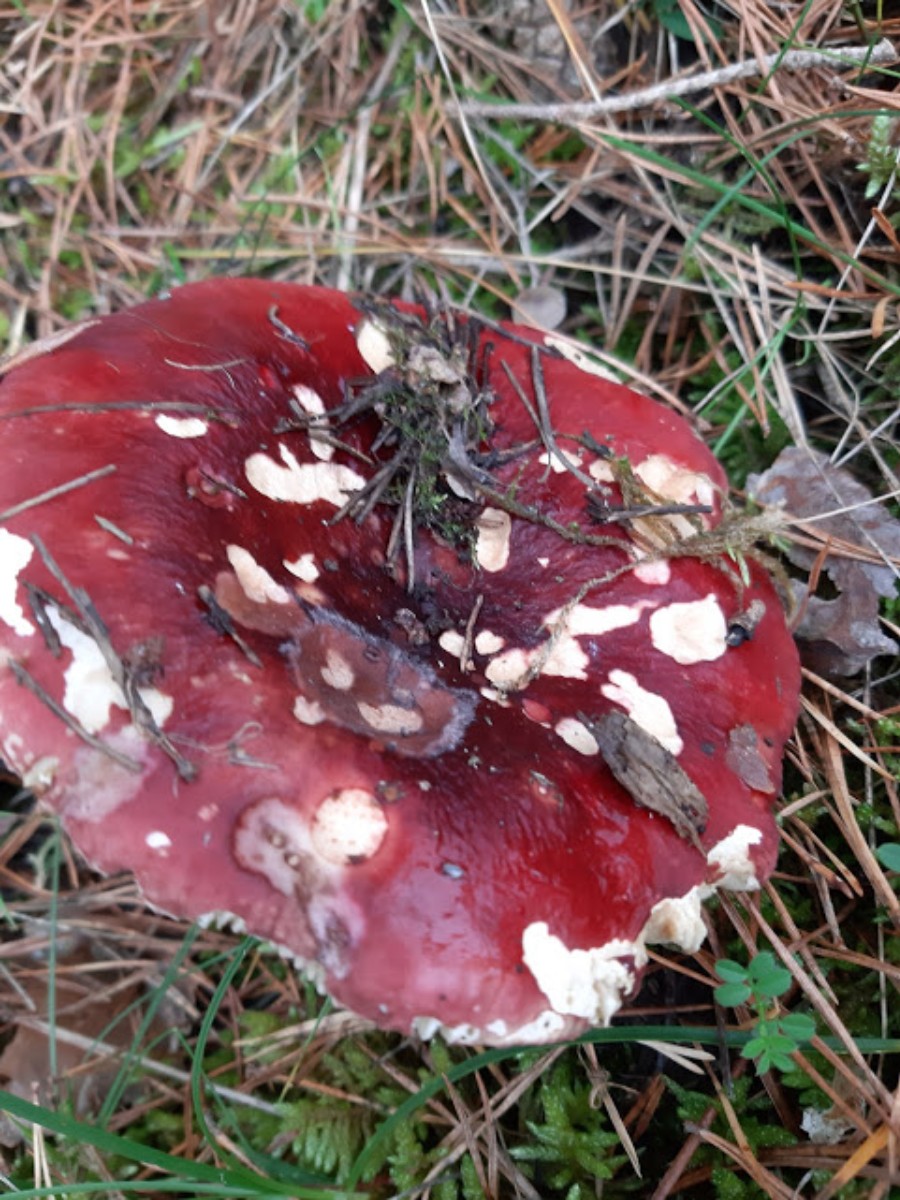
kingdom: Fungi
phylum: Basidiomycota
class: Agaricomycetes
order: Russulales
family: Russulaceae
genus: Russula
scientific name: Russula paludosa
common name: prægtig skørhat
